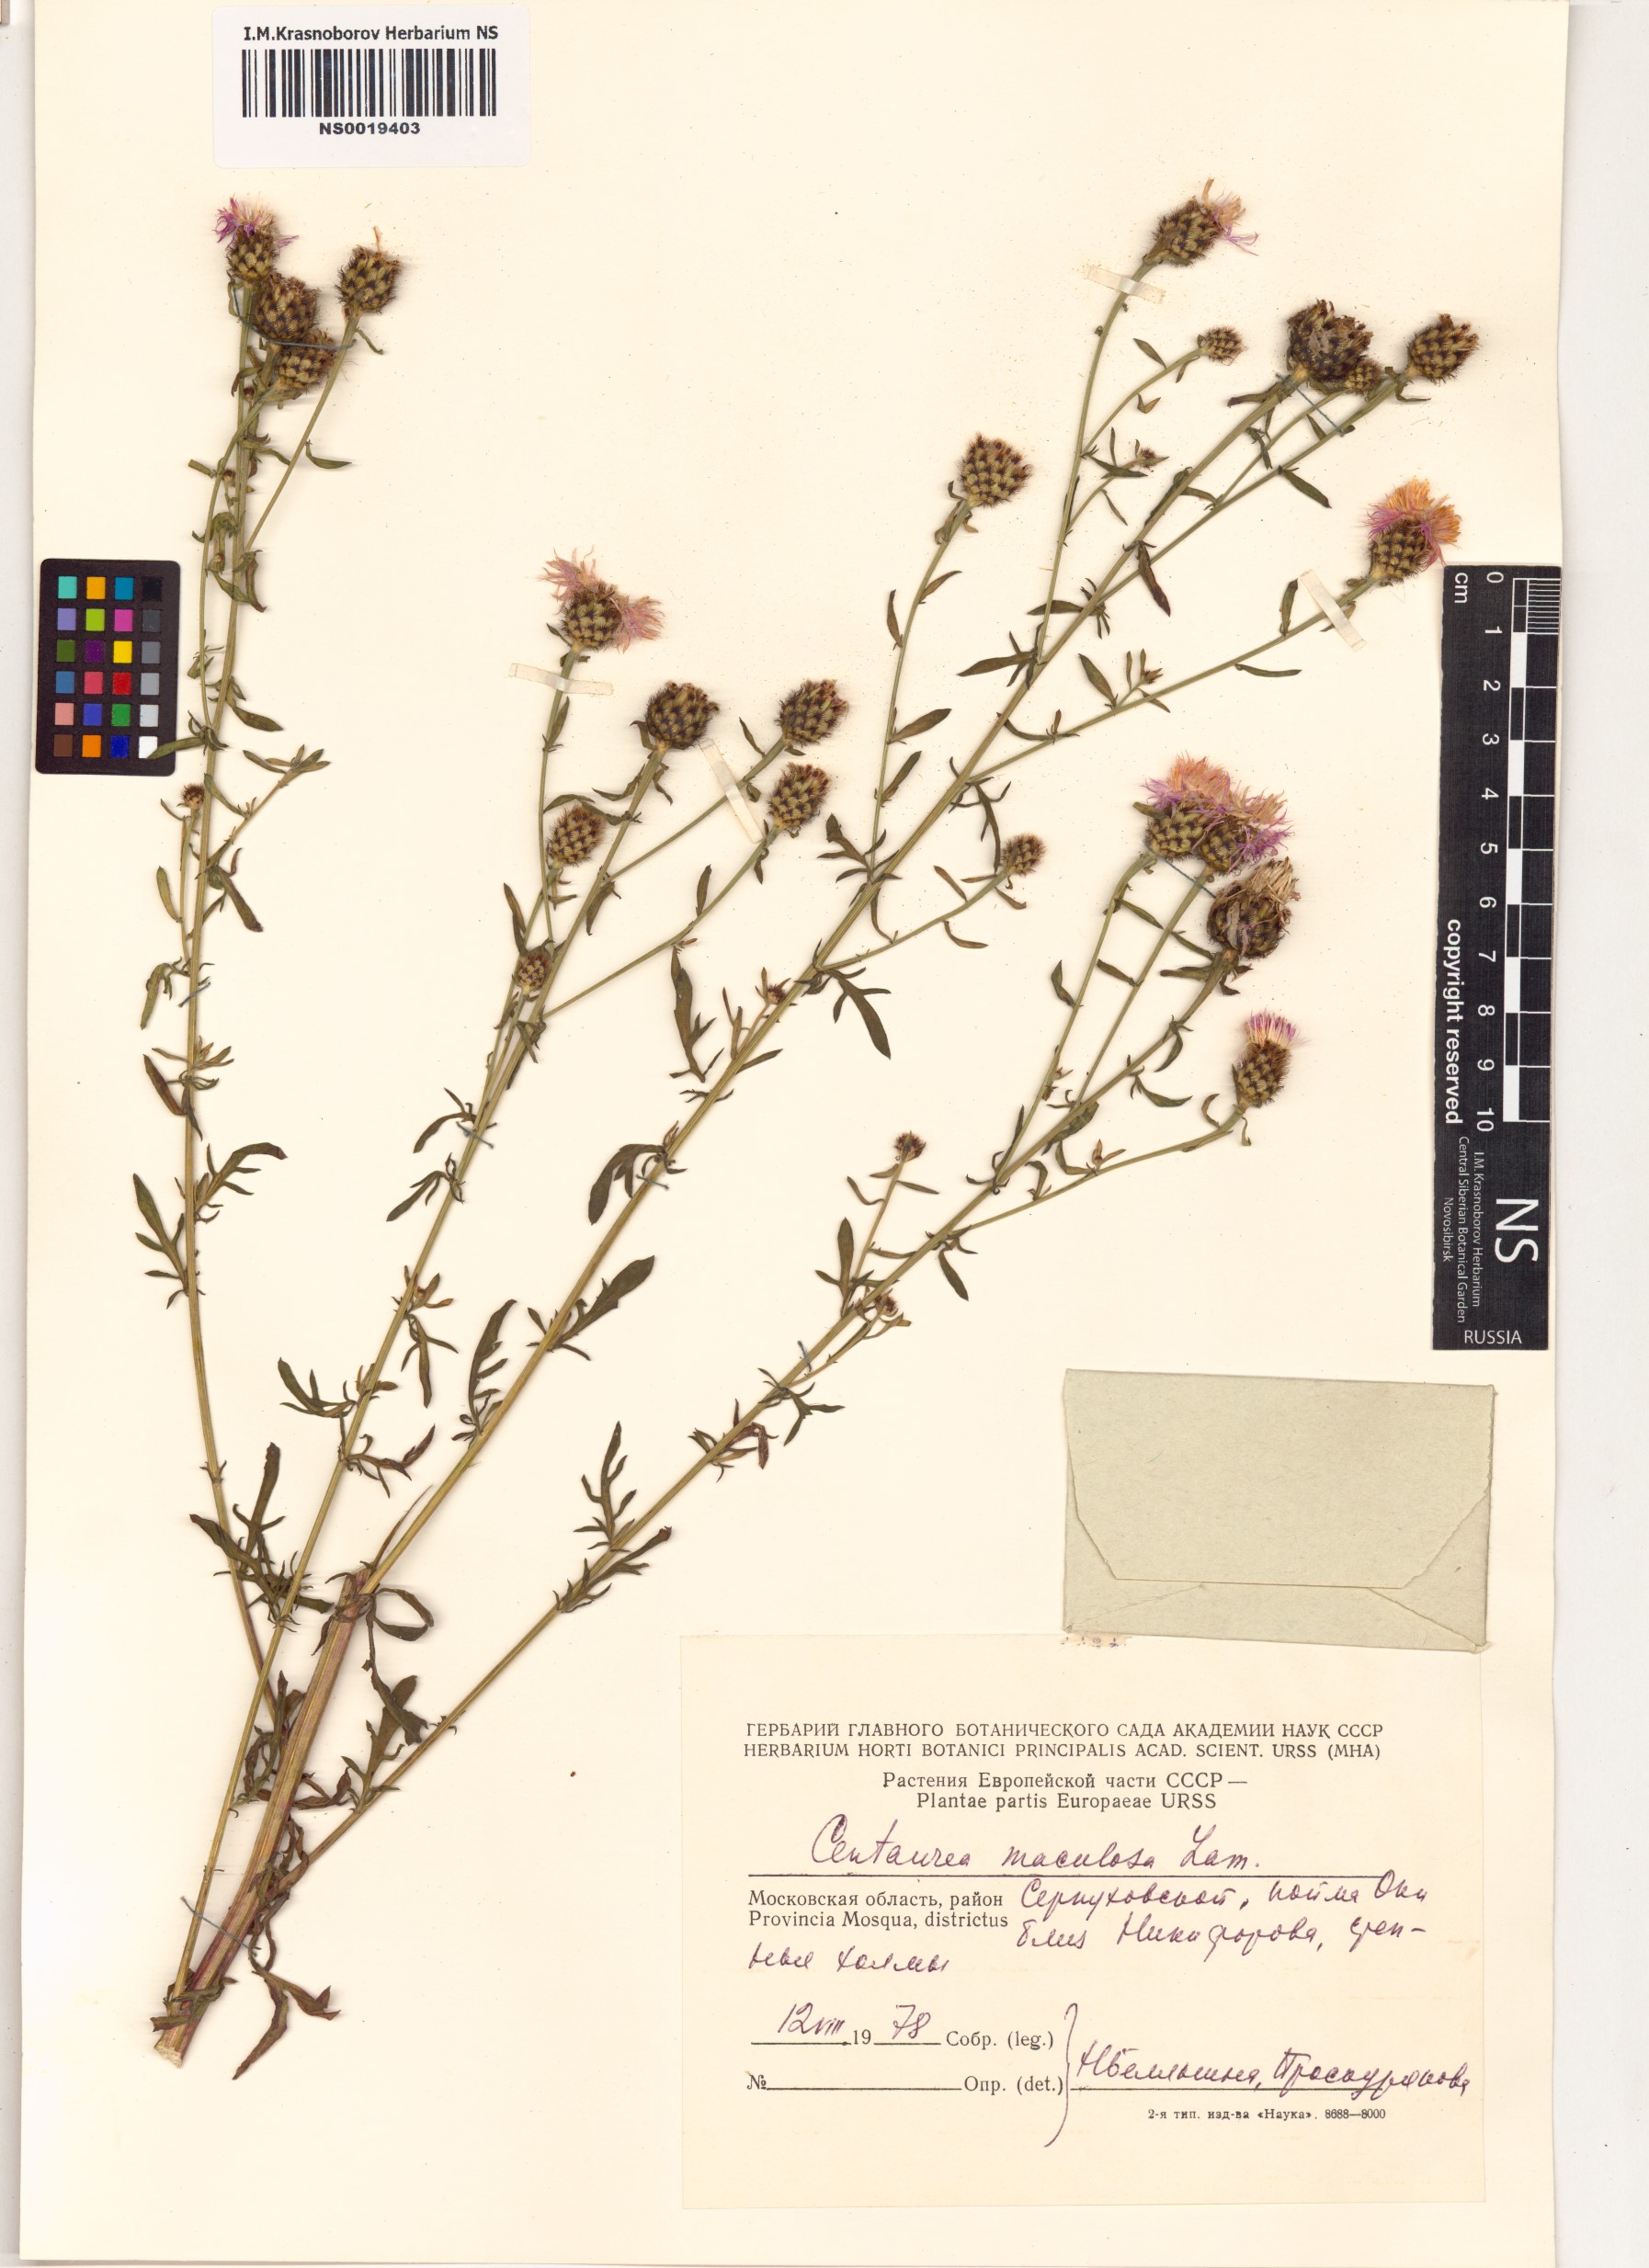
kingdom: Plantae
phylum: Tracheophyta
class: Magnoliopsida
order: Asterales
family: Asteraceae
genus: Centaurea
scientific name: Centaurea stoebe
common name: Spotted knapweed
